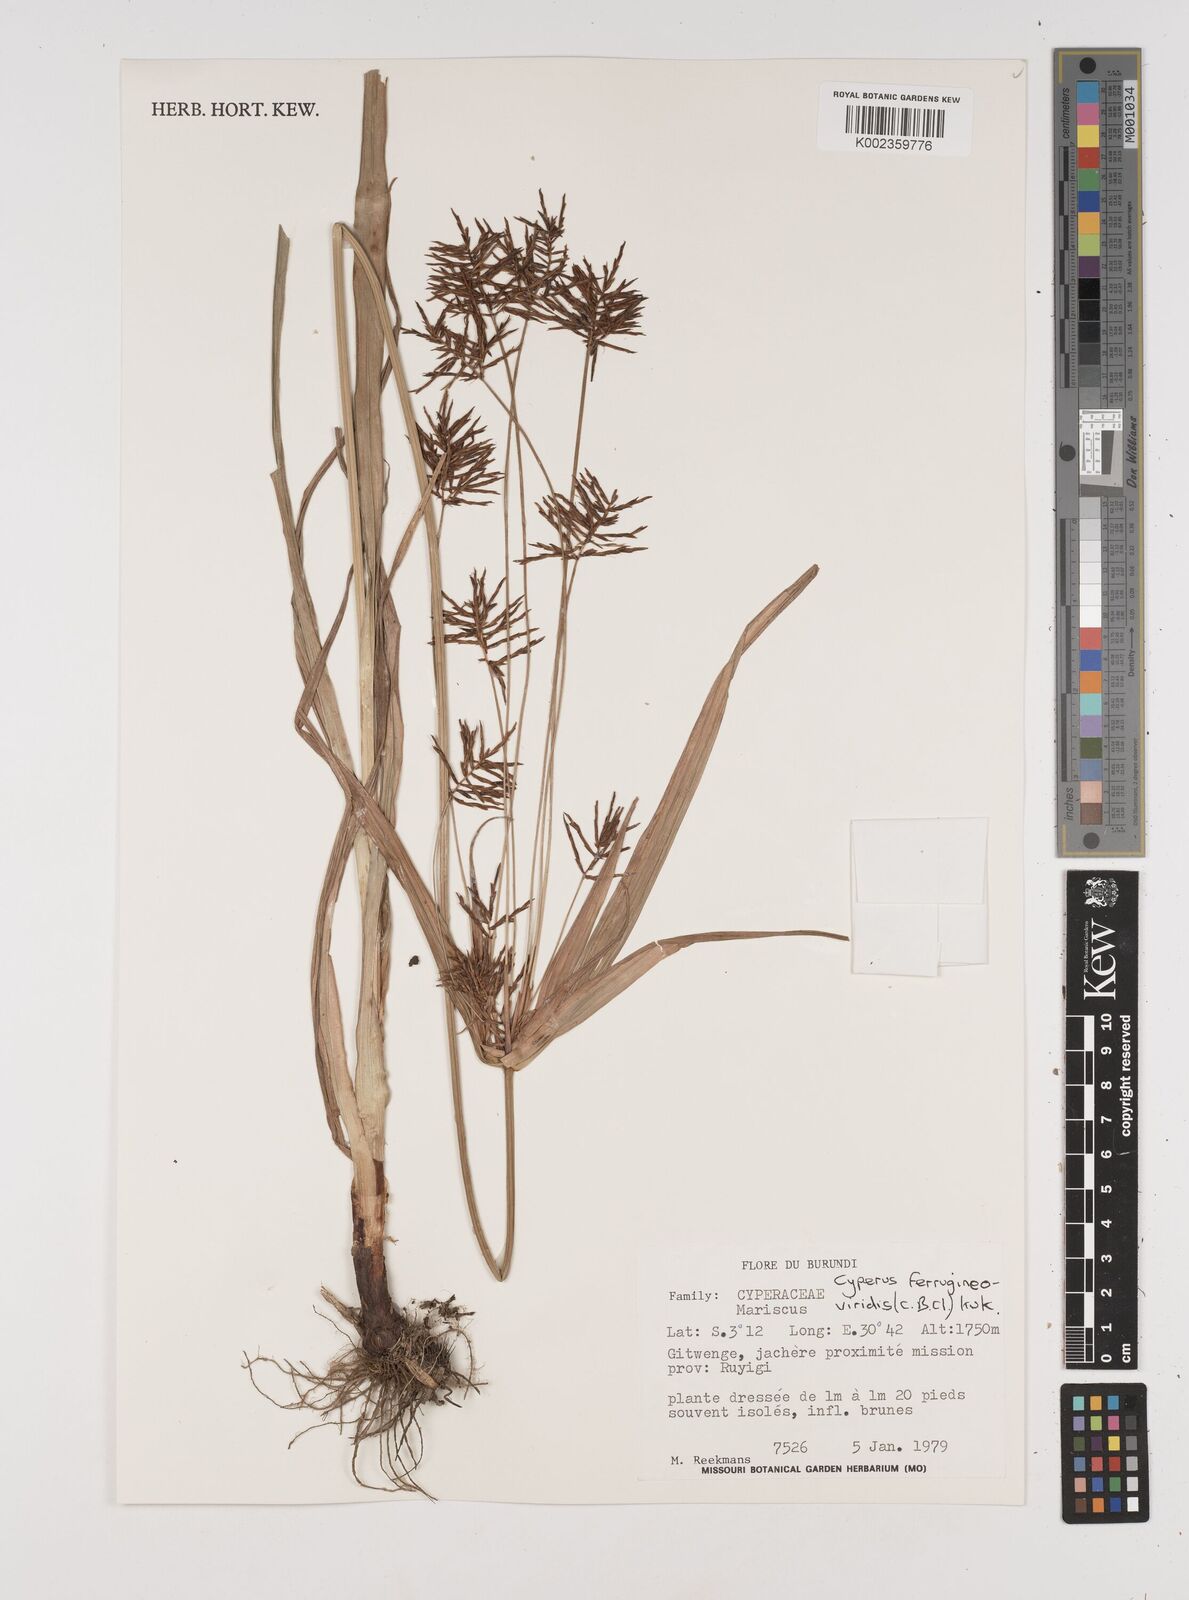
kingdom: Plantae
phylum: Tracheophyta
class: Liliopsida
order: Poales
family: Cyperaceae
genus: Cyperus
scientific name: Cyperus ferrugineoviridis
